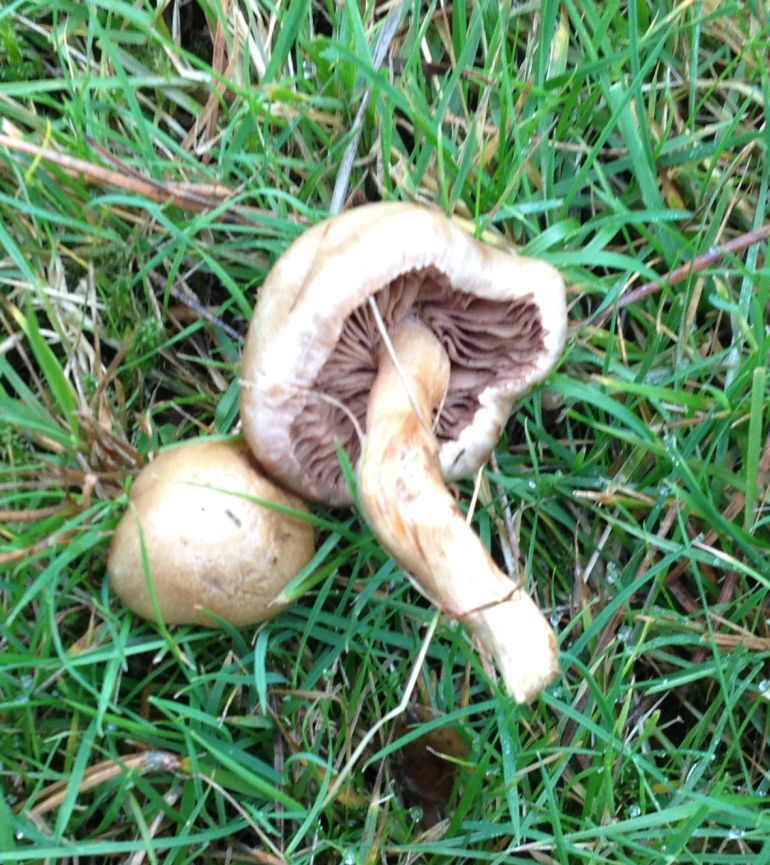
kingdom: Fungi
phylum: Basidiomycota
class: Agaricomycetes
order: Agaricales
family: Hymenogastraceae
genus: Hebeloma
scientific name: Hebeloma sacchariolens
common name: sødtduftende tåreblad
